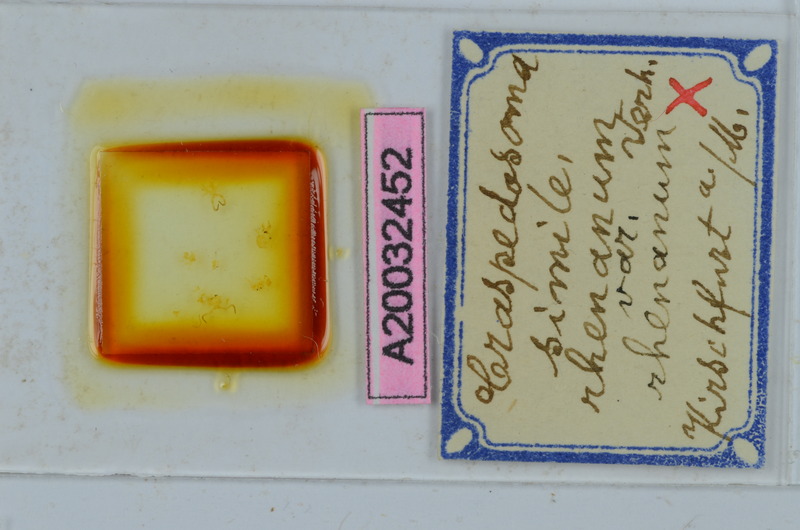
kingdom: Animalia
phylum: Arthropoda
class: Diplopoda
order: Chordeumatida
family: Craspedosomatidae
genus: Craspedosoma
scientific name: Craspedosoma rawlinsii
